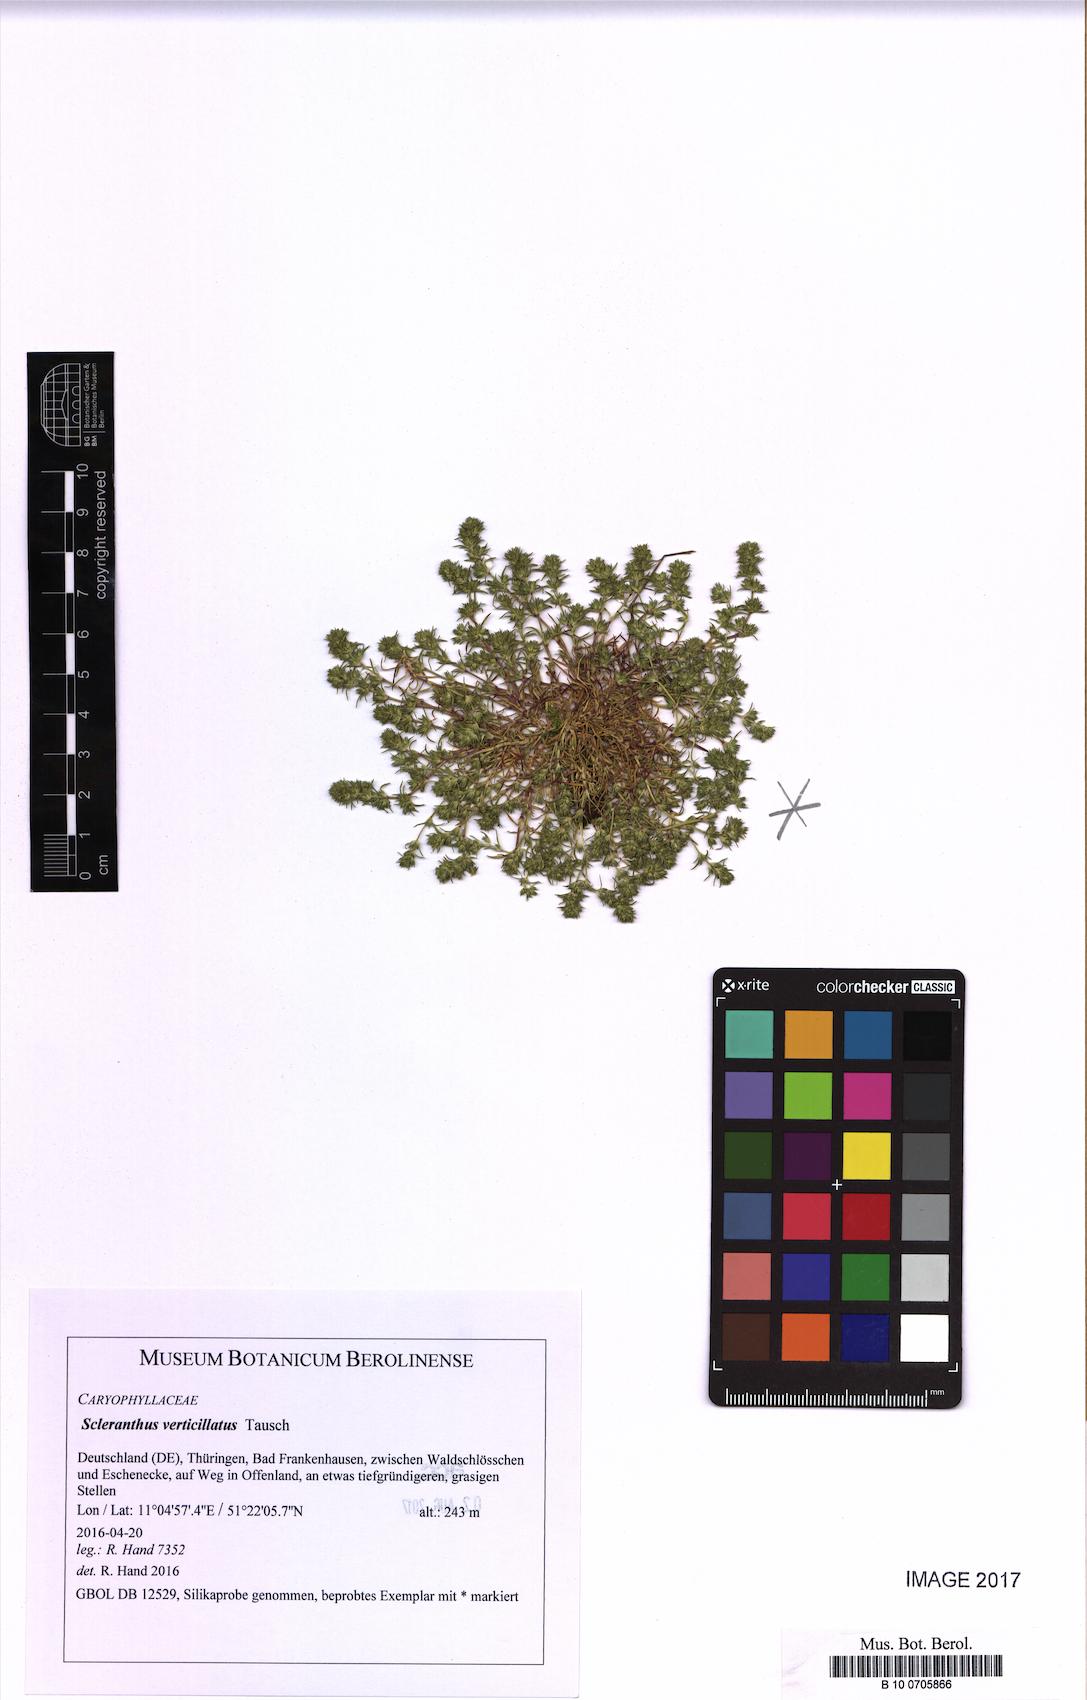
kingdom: Plantae
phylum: Tracheophyta
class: Magnoliopsida
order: Caryophyllales
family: Caryophyllaceae
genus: Scleranthus
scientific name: Scleranthus verticillatus
